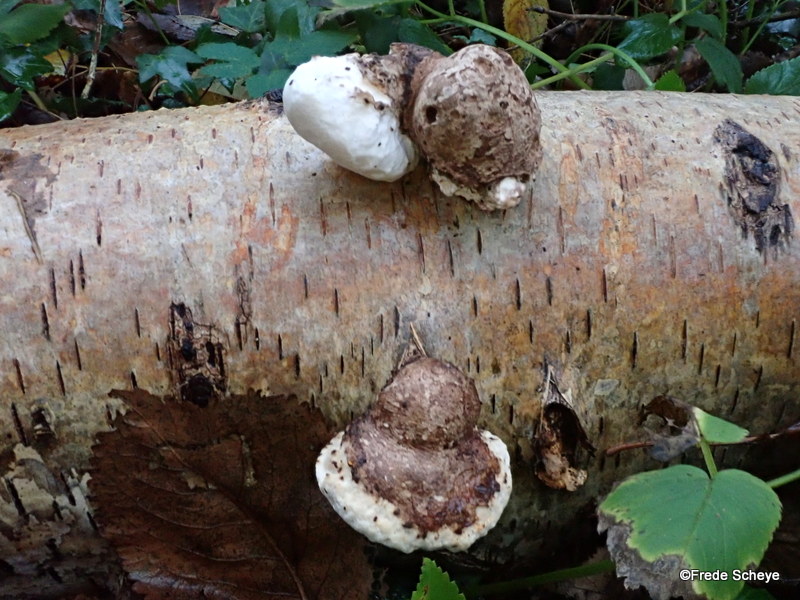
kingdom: Fungi
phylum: Basidiomycota
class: Agaricomycetes
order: Polyporales
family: Fomitopsidaceae
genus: Fomitopsis
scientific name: Fomitopsis betulina
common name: birkeporesvamp
